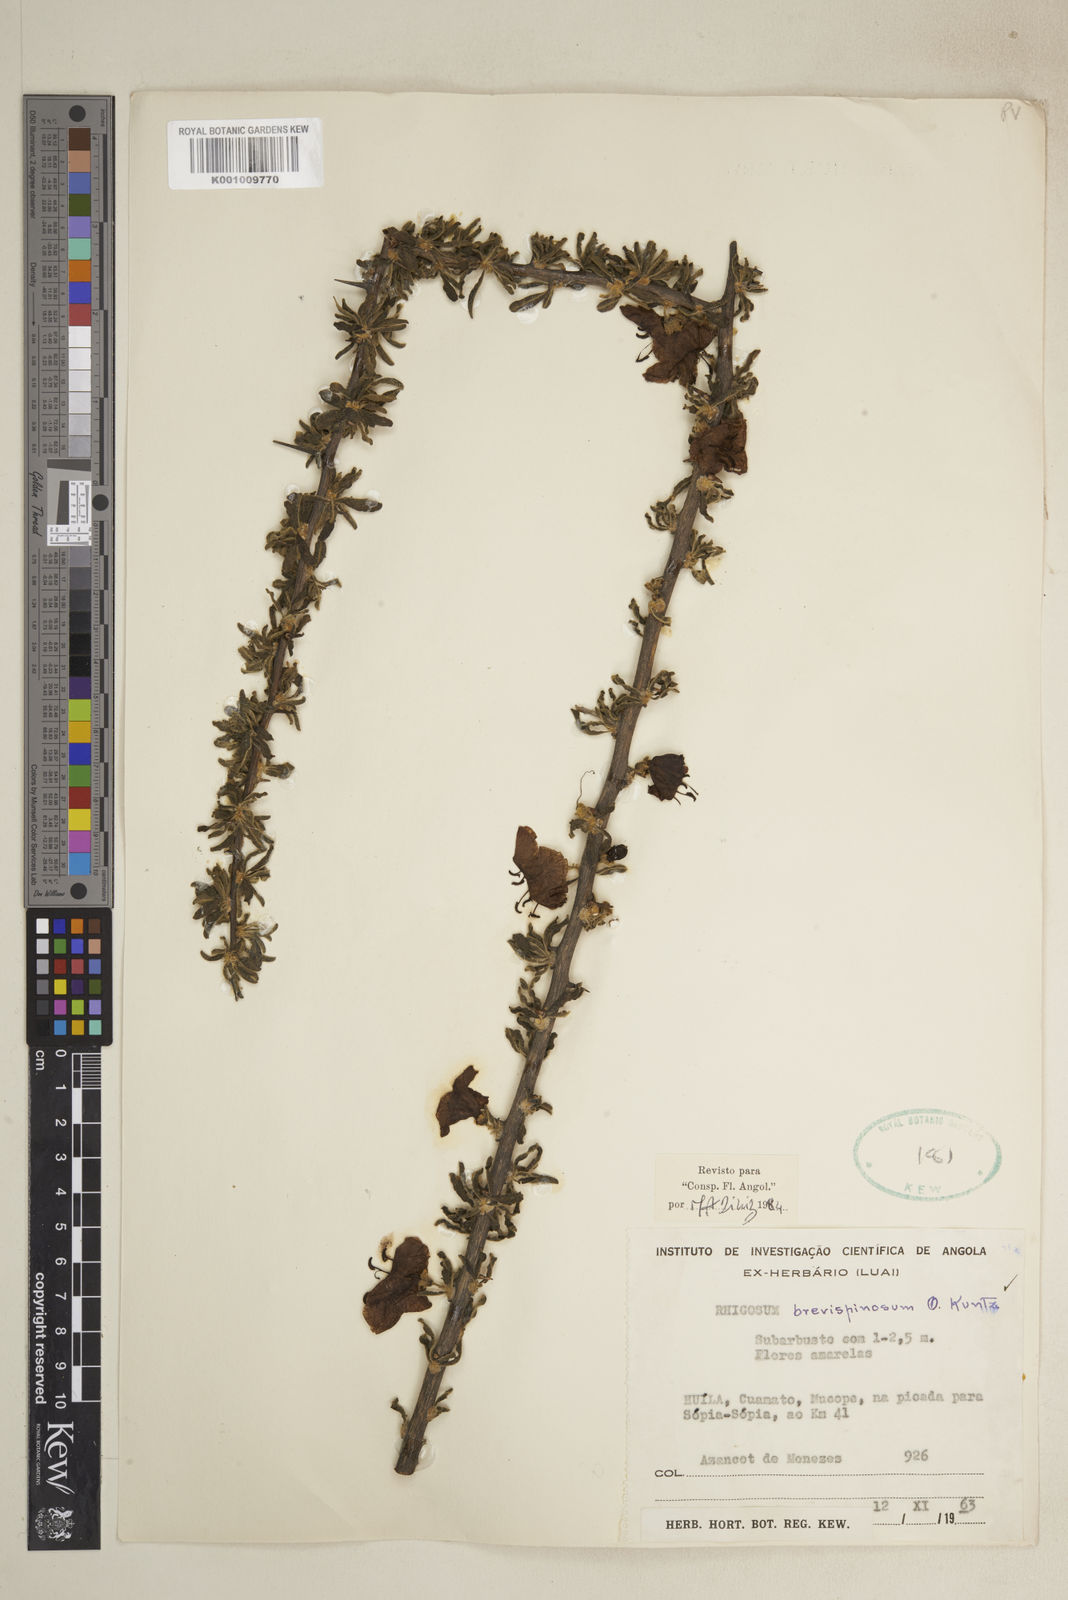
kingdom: Plantae
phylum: Tracheophyta
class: Magnoliopsida
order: Lamiales
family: Bignoniaceae
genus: Rhigozum
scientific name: Rhigozum brevispinosum
